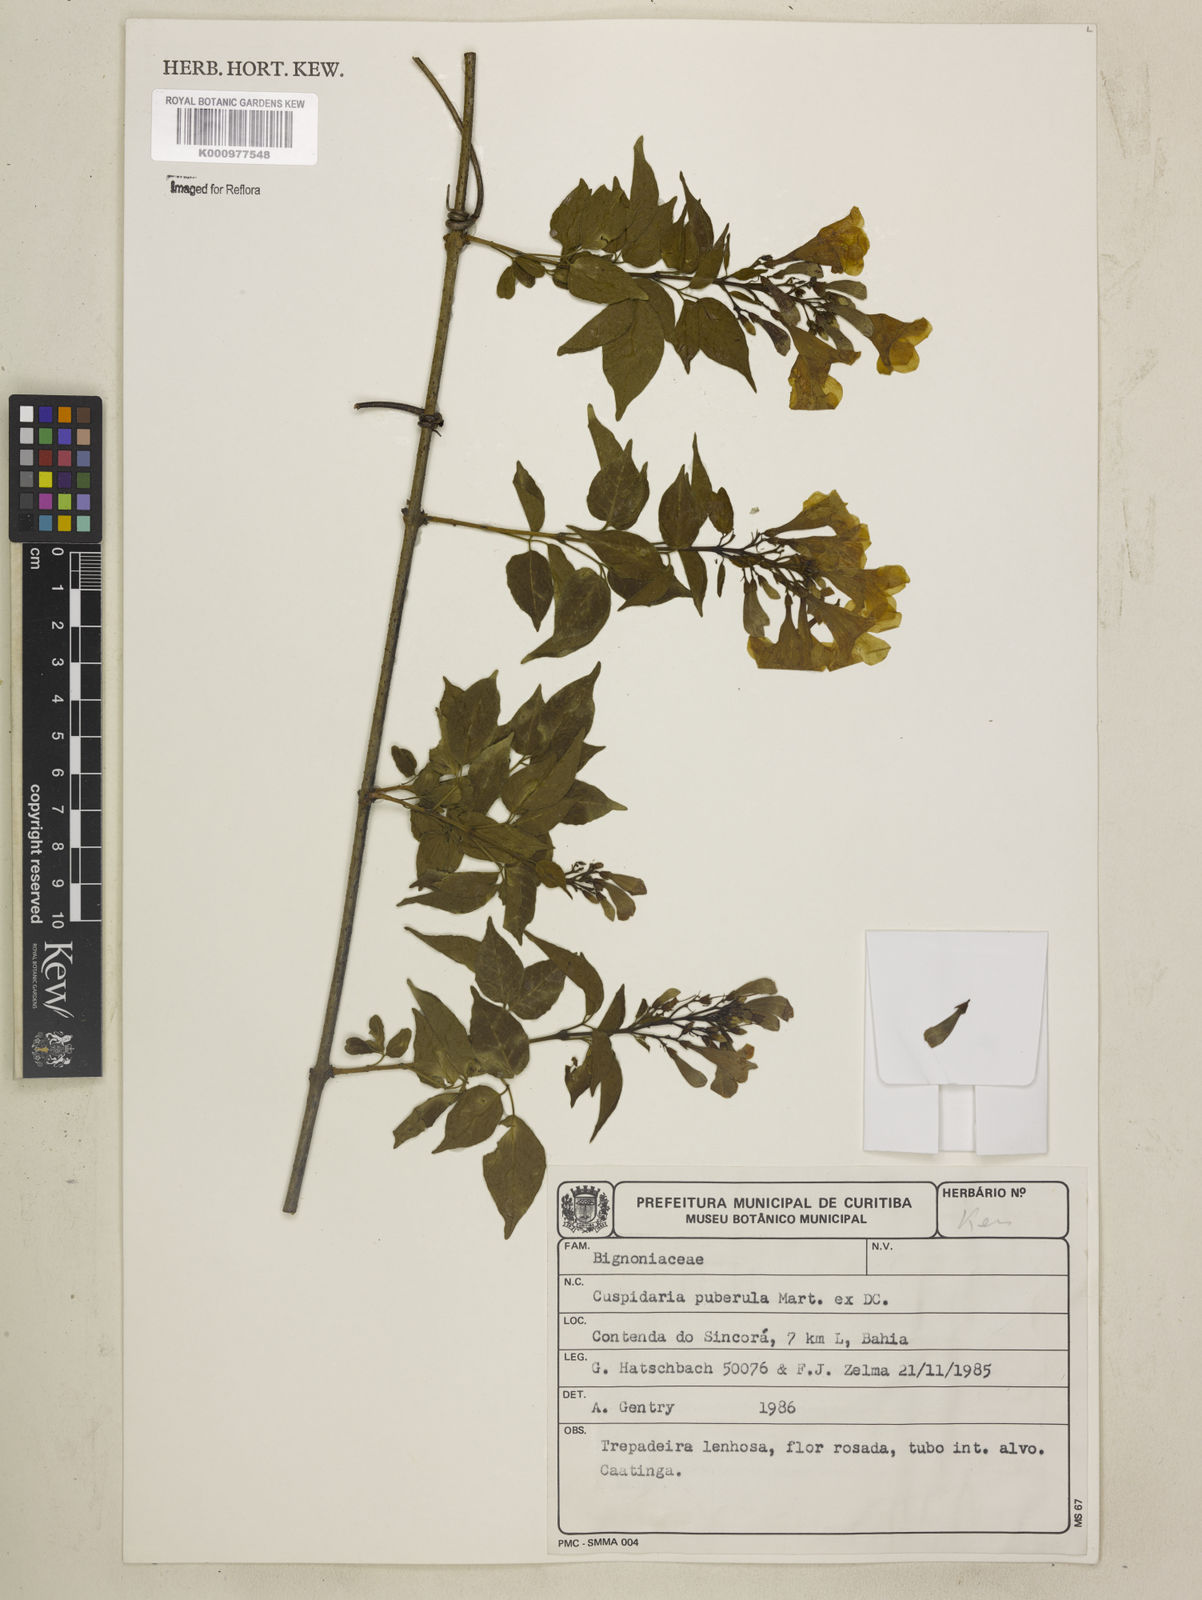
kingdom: Plantae
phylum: Tracheophyta
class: Magnoliopsida
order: Lamiales
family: Bignoniaceae
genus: Cuspidaria
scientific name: Cuspidaria simplicifolia
